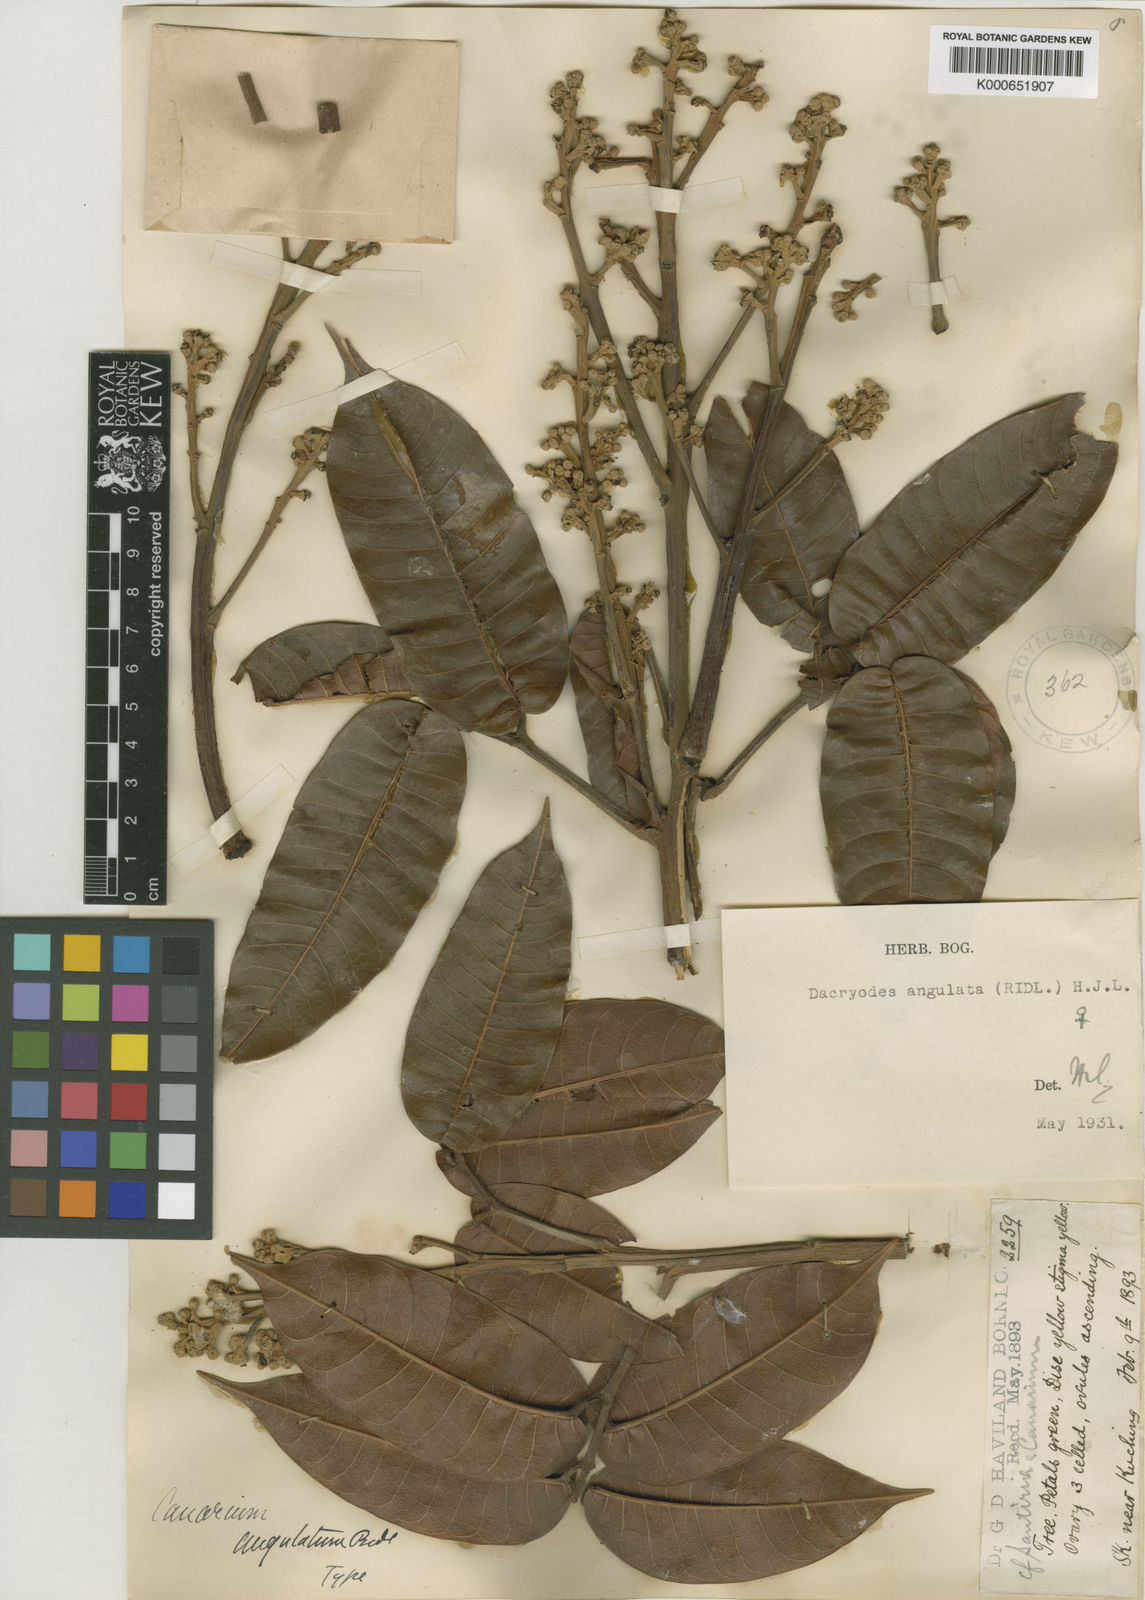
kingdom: Plantae
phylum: Tracheophyta
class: Magnoliopsida
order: Sapindales
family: Burseraceae
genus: Dacryodes
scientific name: Dacryodes incurvata
